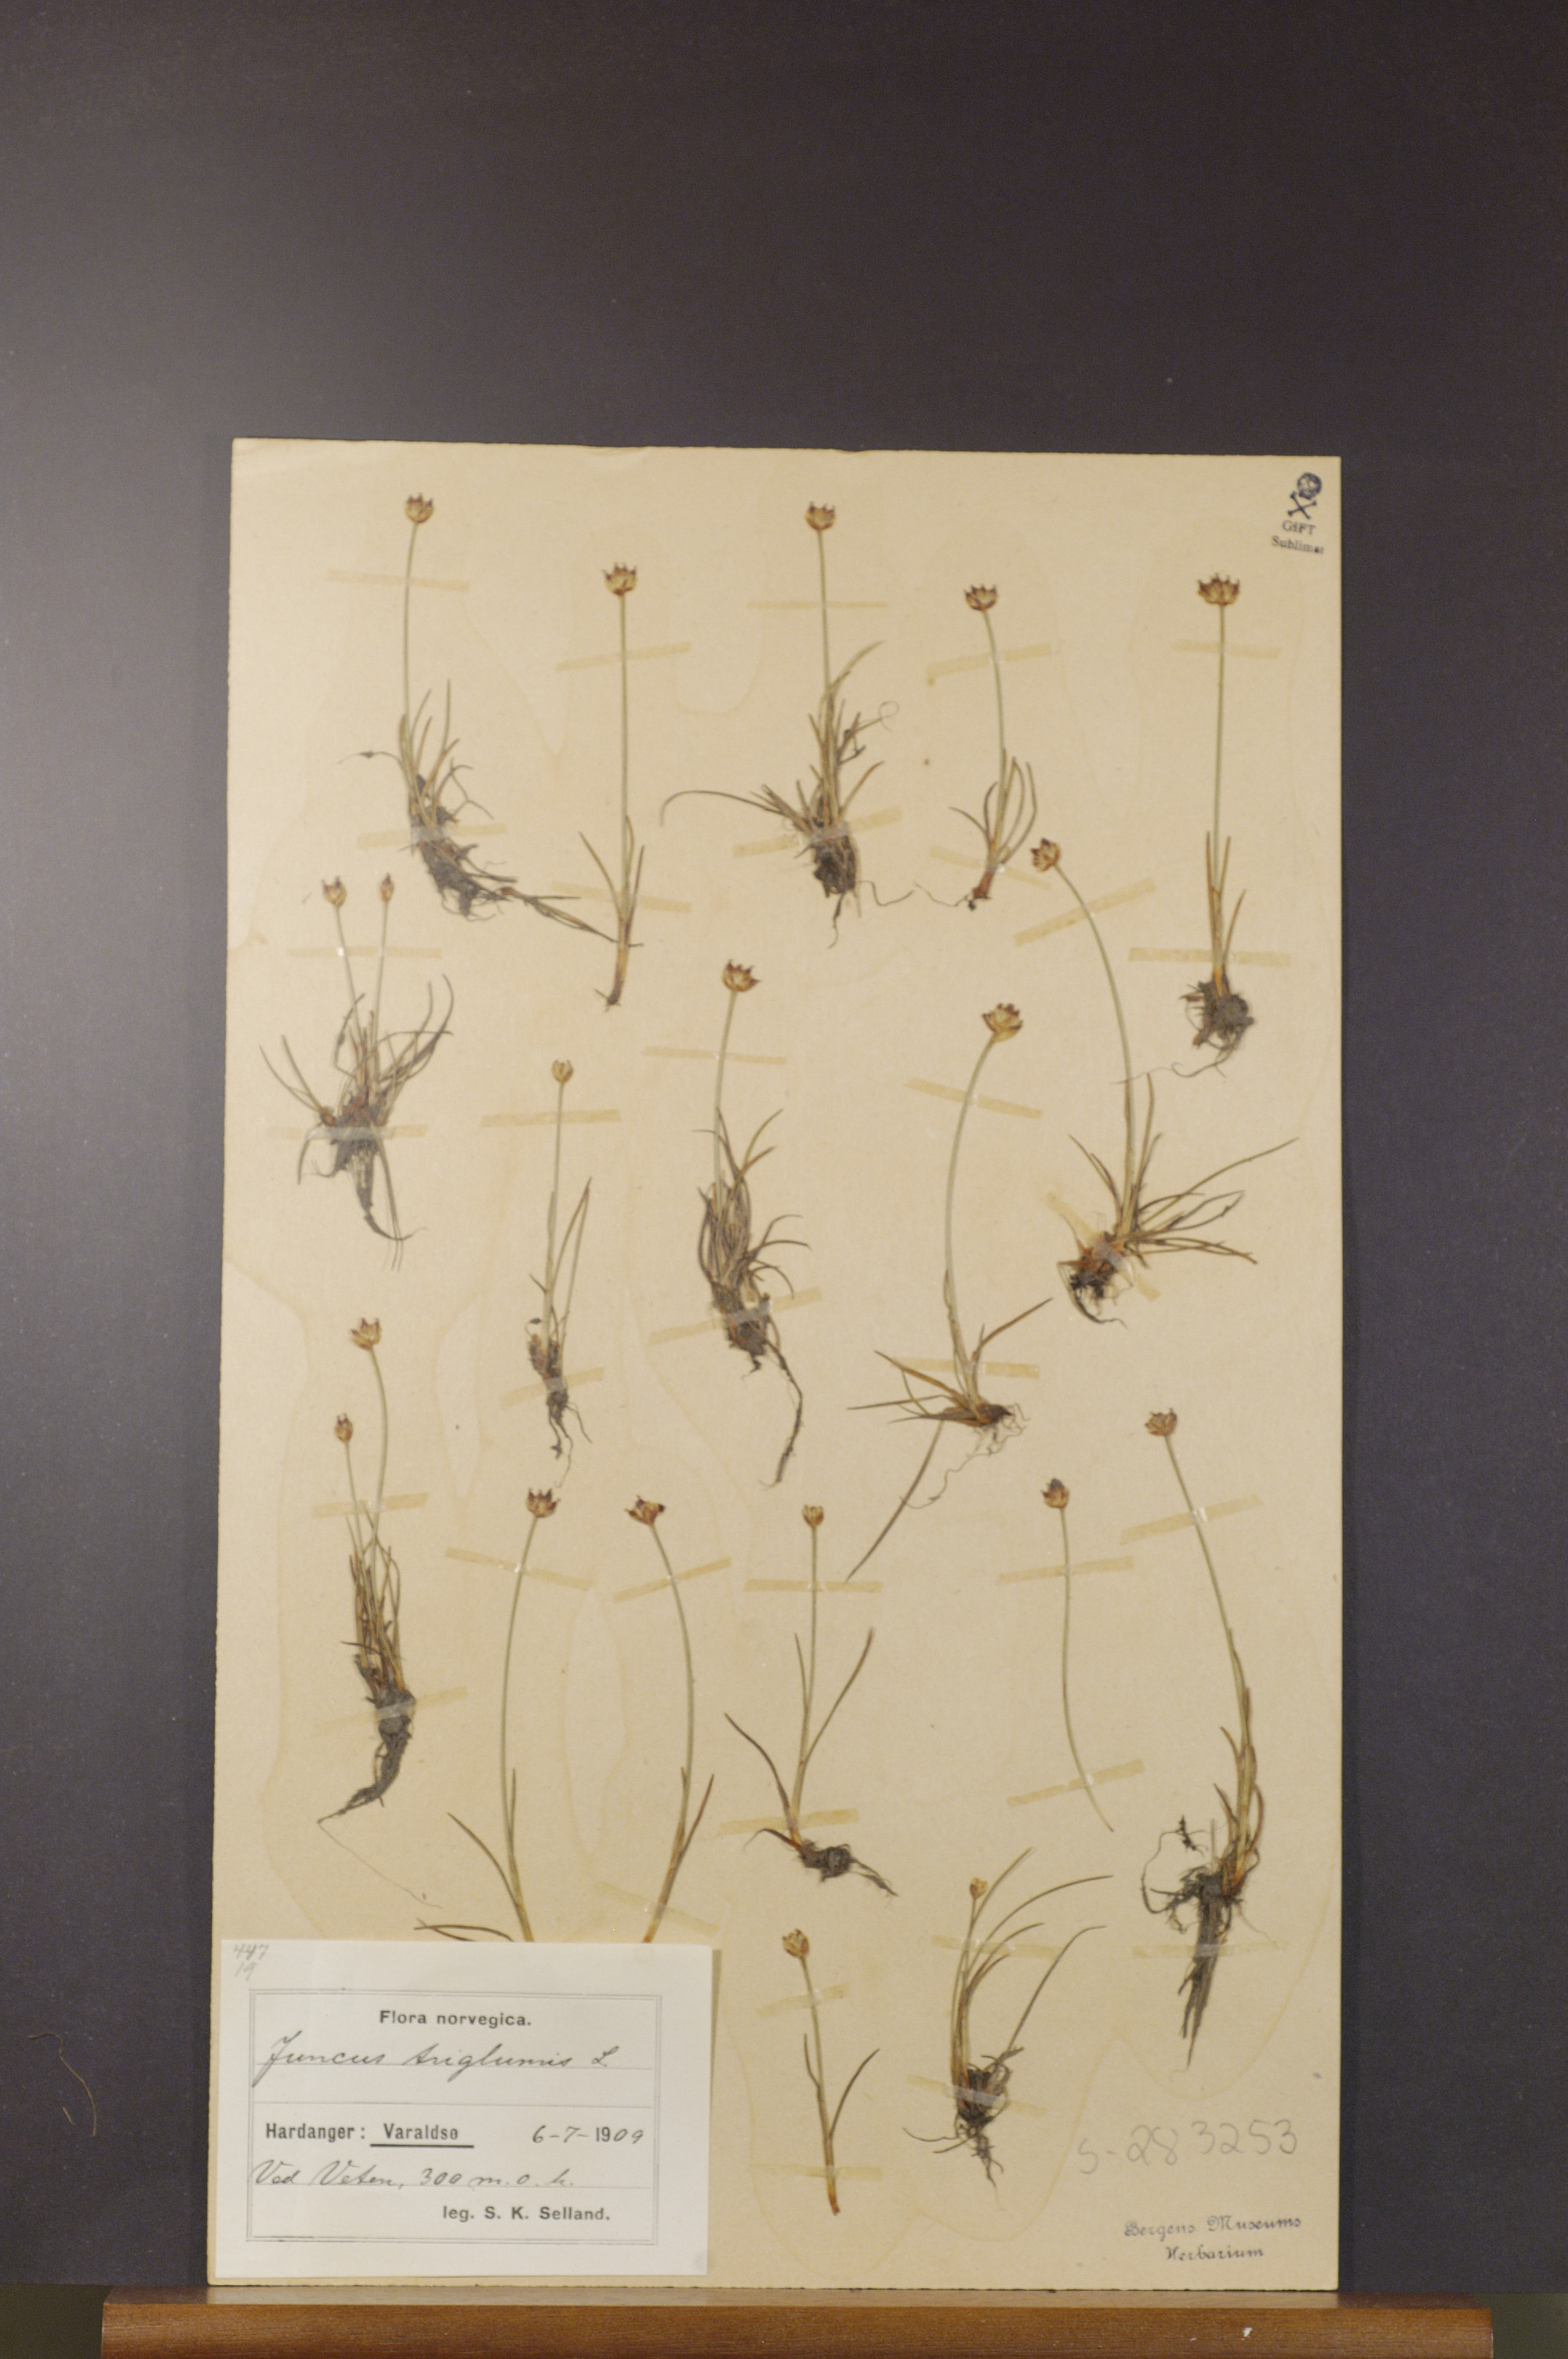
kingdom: Plantae
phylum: Tracheophyta
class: Liliopsida
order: Poales
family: Juncaceae
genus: Juncus
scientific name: Juncus triglumis
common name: Three-flowered rush
